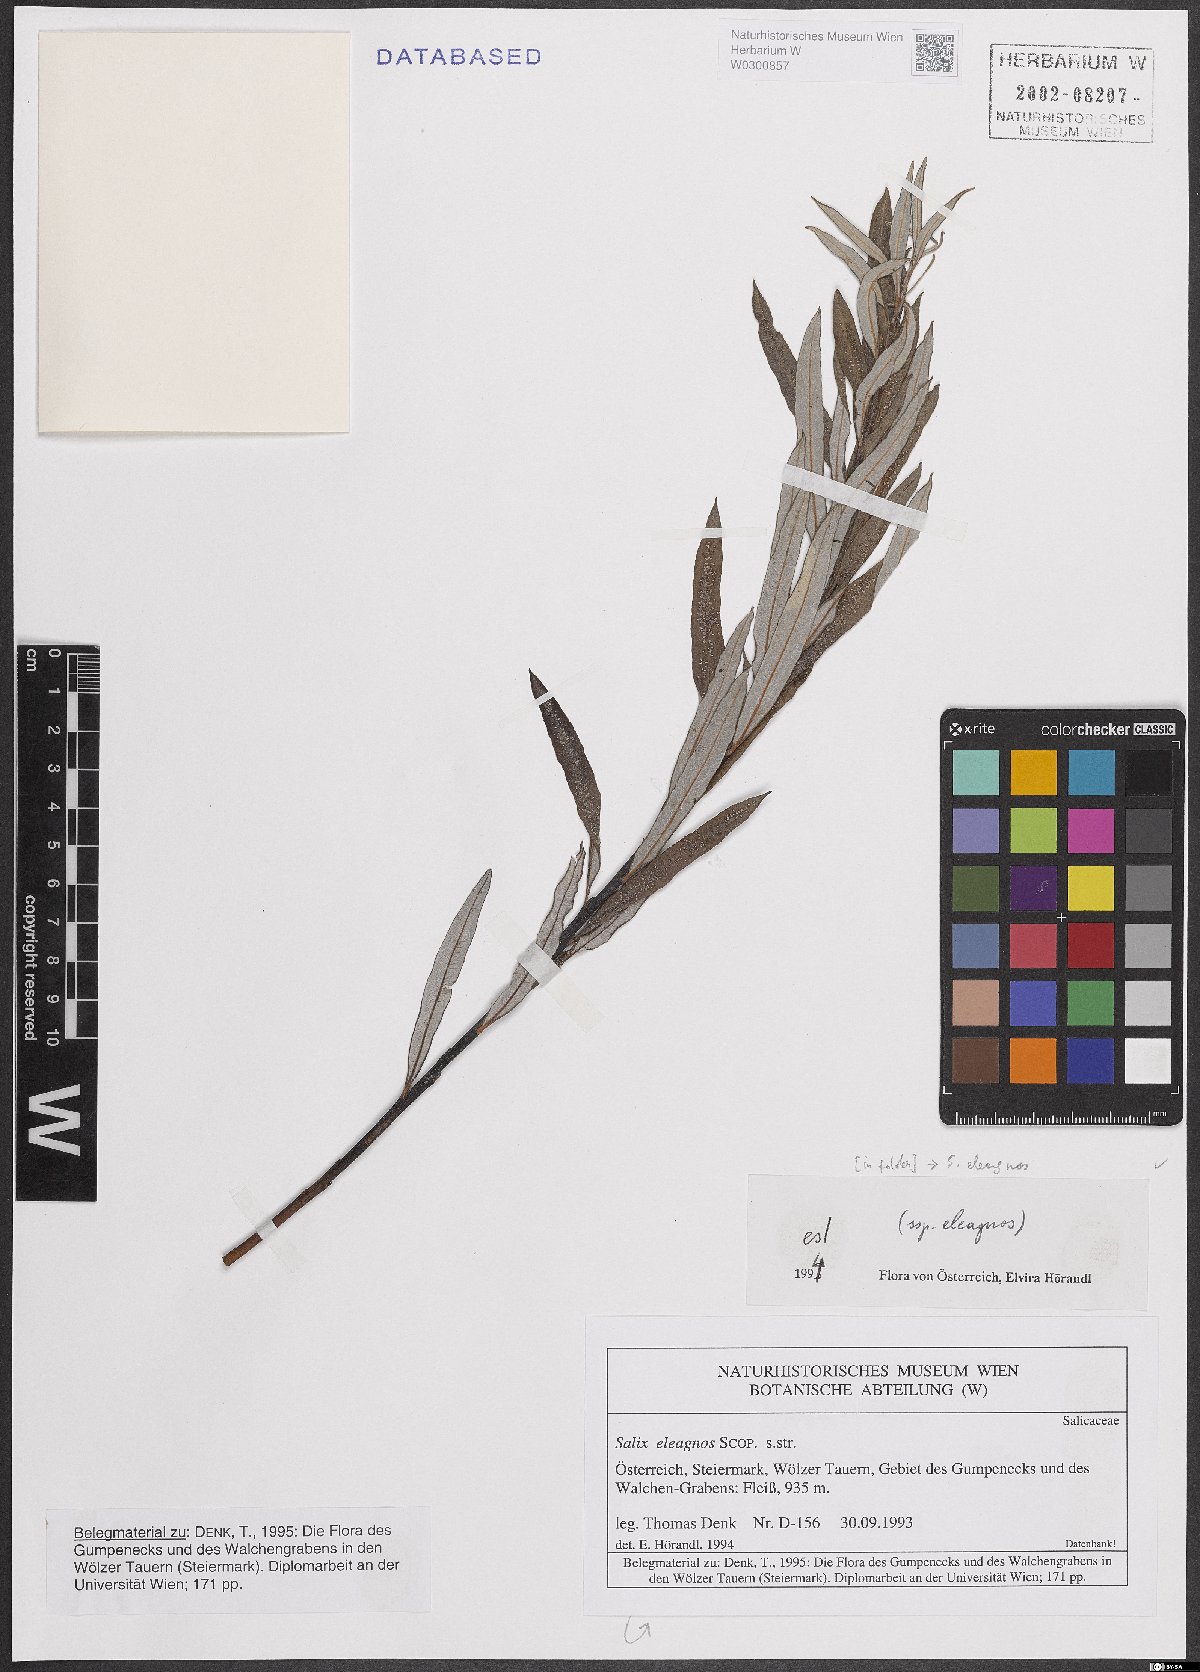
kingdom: Plantae
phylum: Tracheophyta
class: Magnoliopsida
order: Malpighiales
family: Salicaceae
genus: Salix
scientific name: Salix eleagnos
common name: Elaeagnus willow
